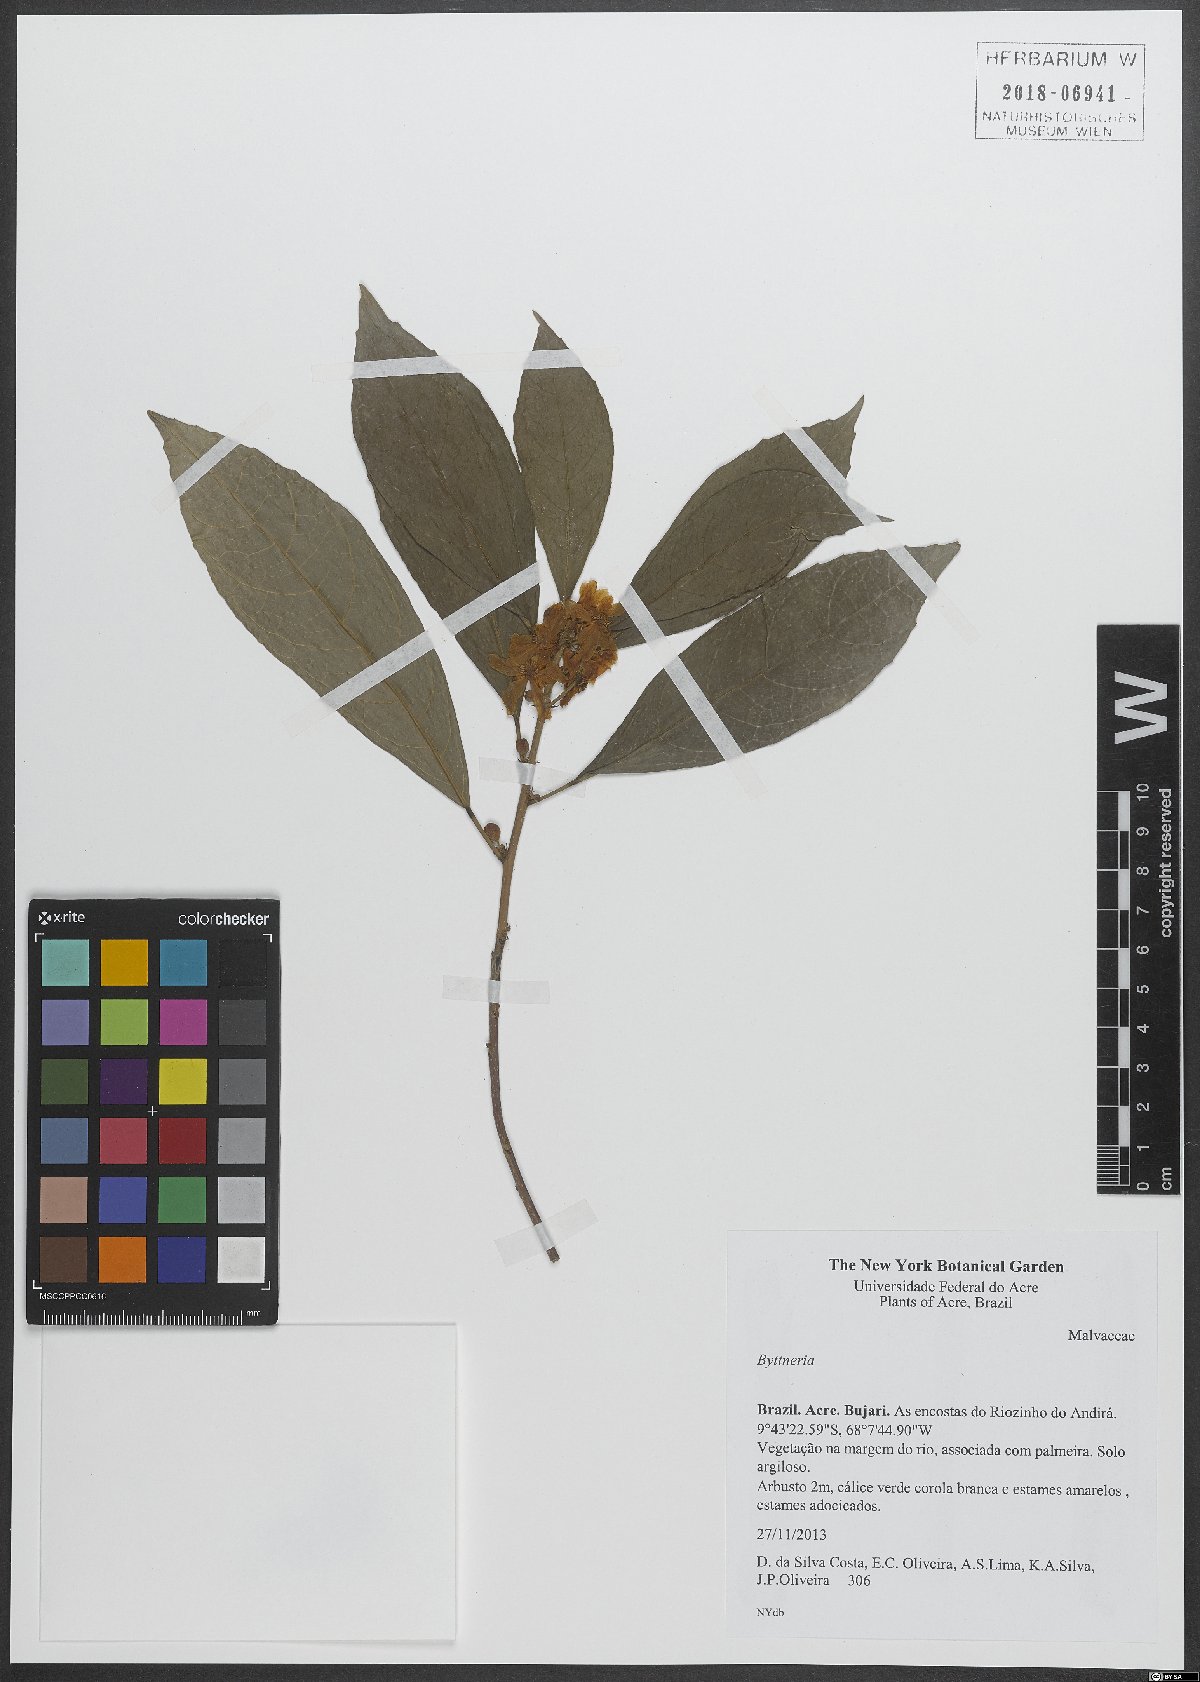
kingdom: Plantae
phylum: Tracheophyta
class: Magnoliopsida
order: Malvales
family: Malvaceae
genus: Byttneria
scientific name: Byttneria
